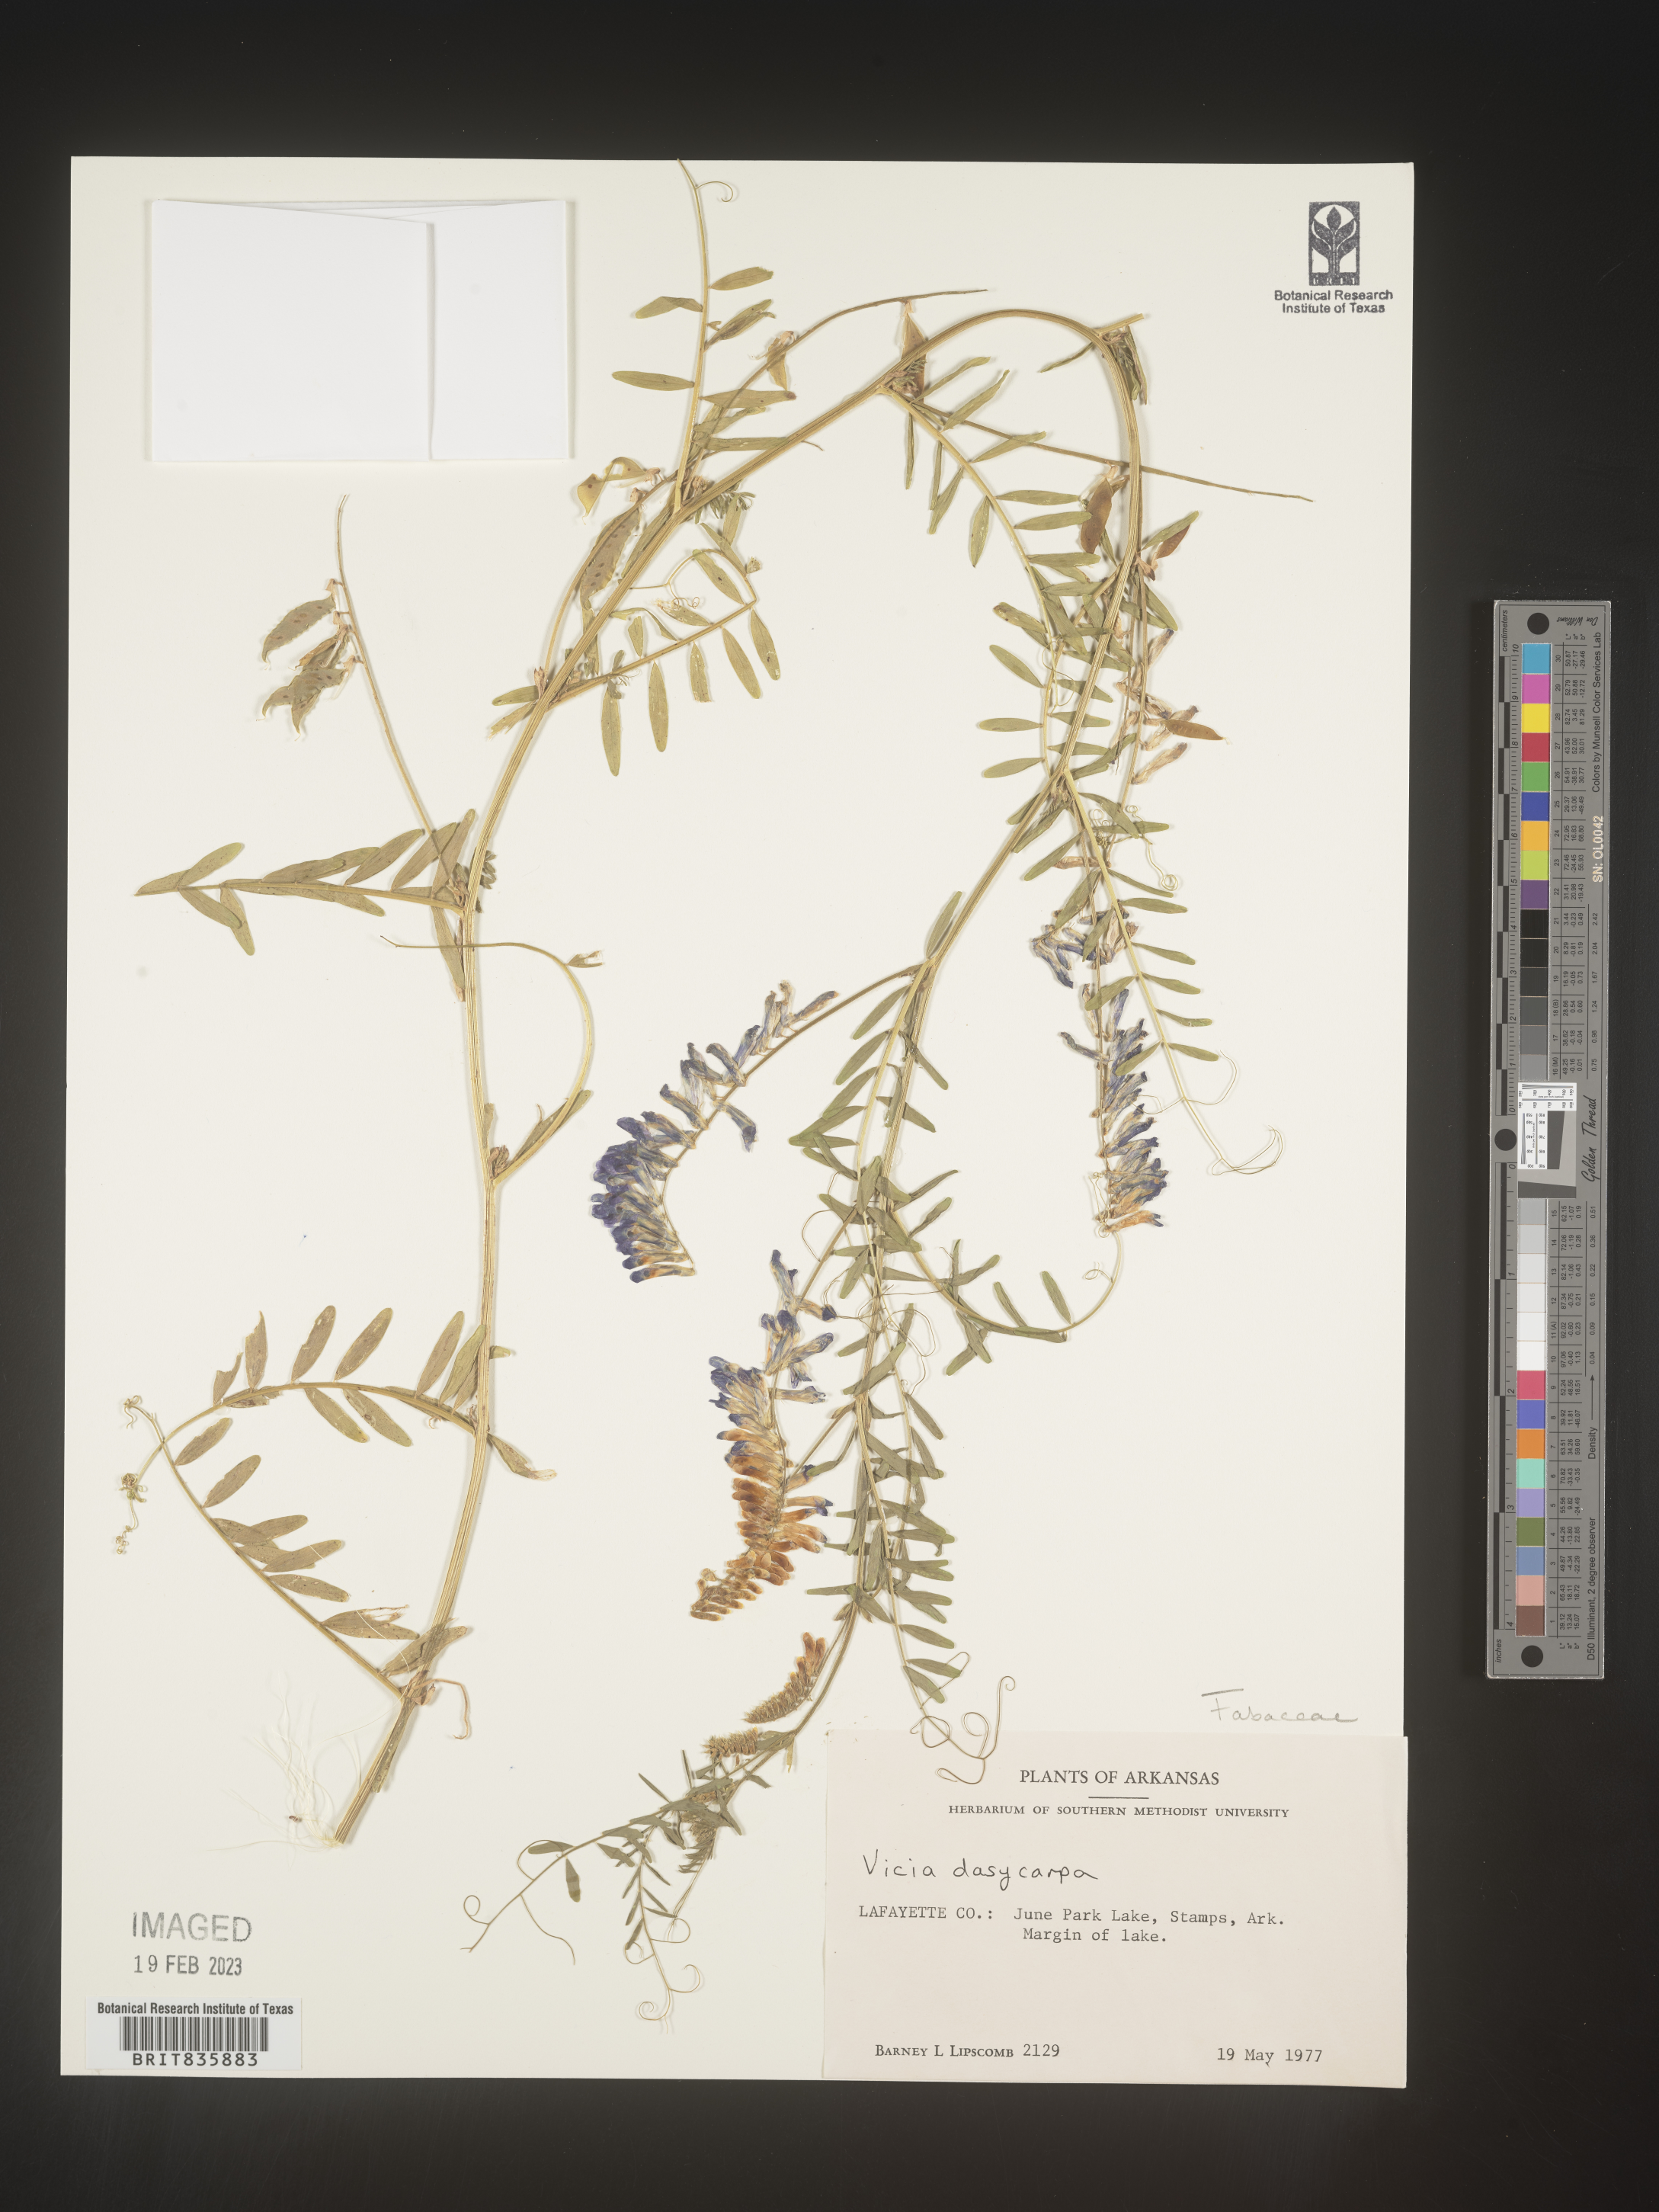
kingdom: Plantae
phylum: Tracheophyta
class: Magnoliopsida
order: Fabales
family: Fabaceae
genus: Vicia
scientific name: Vicia villosa
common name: Fodder vetch
